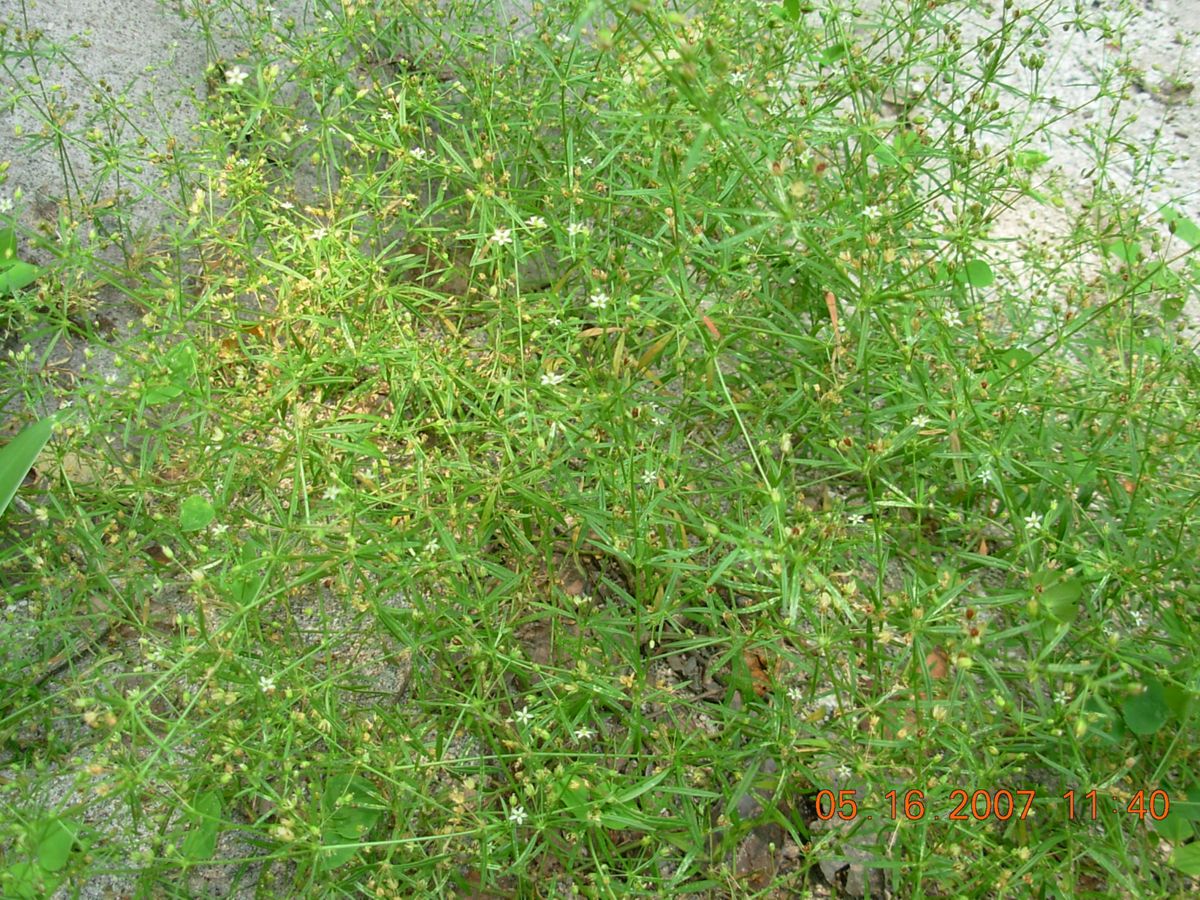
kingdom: Plantae
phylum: Tracheophyta
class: Magnoliopsida
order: Caryophyllales
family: Molluginaceae
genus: Mollugo
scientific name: Mollugo verticillata
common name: Green carpetweed
